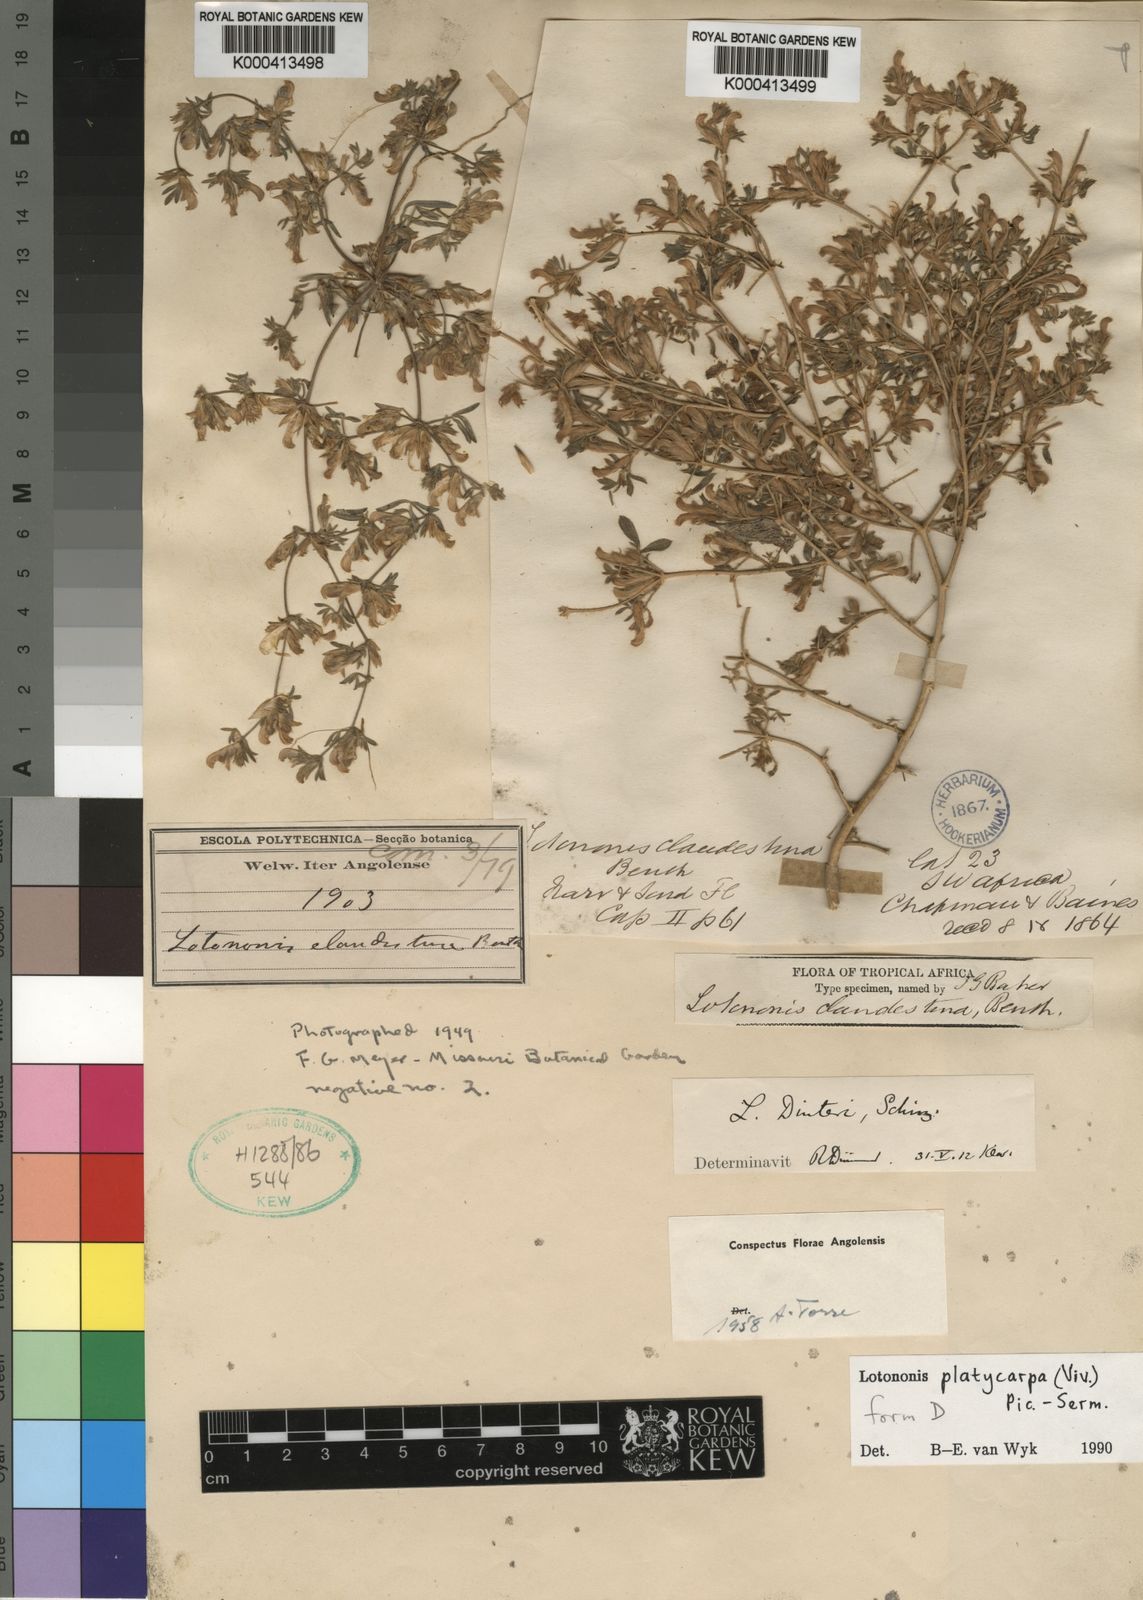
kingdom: Plantae
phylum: Tracheophyta
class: Magnoliopsida
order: Fabales
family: Fabaceae
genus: Leobordea
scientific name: Leobordea platycarpa
